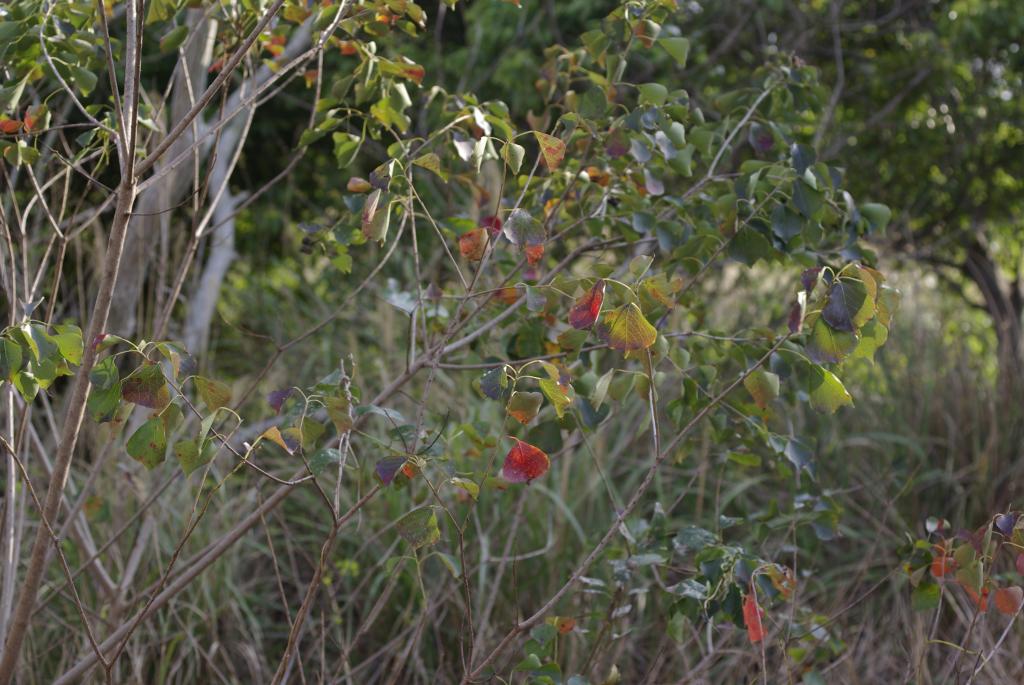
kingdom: Plantae
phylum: Tracheophyta
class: Magnoliopsida
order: Malpighiales
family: Euphorbiaceae
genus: Triadica
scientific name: Triadica sebifera
